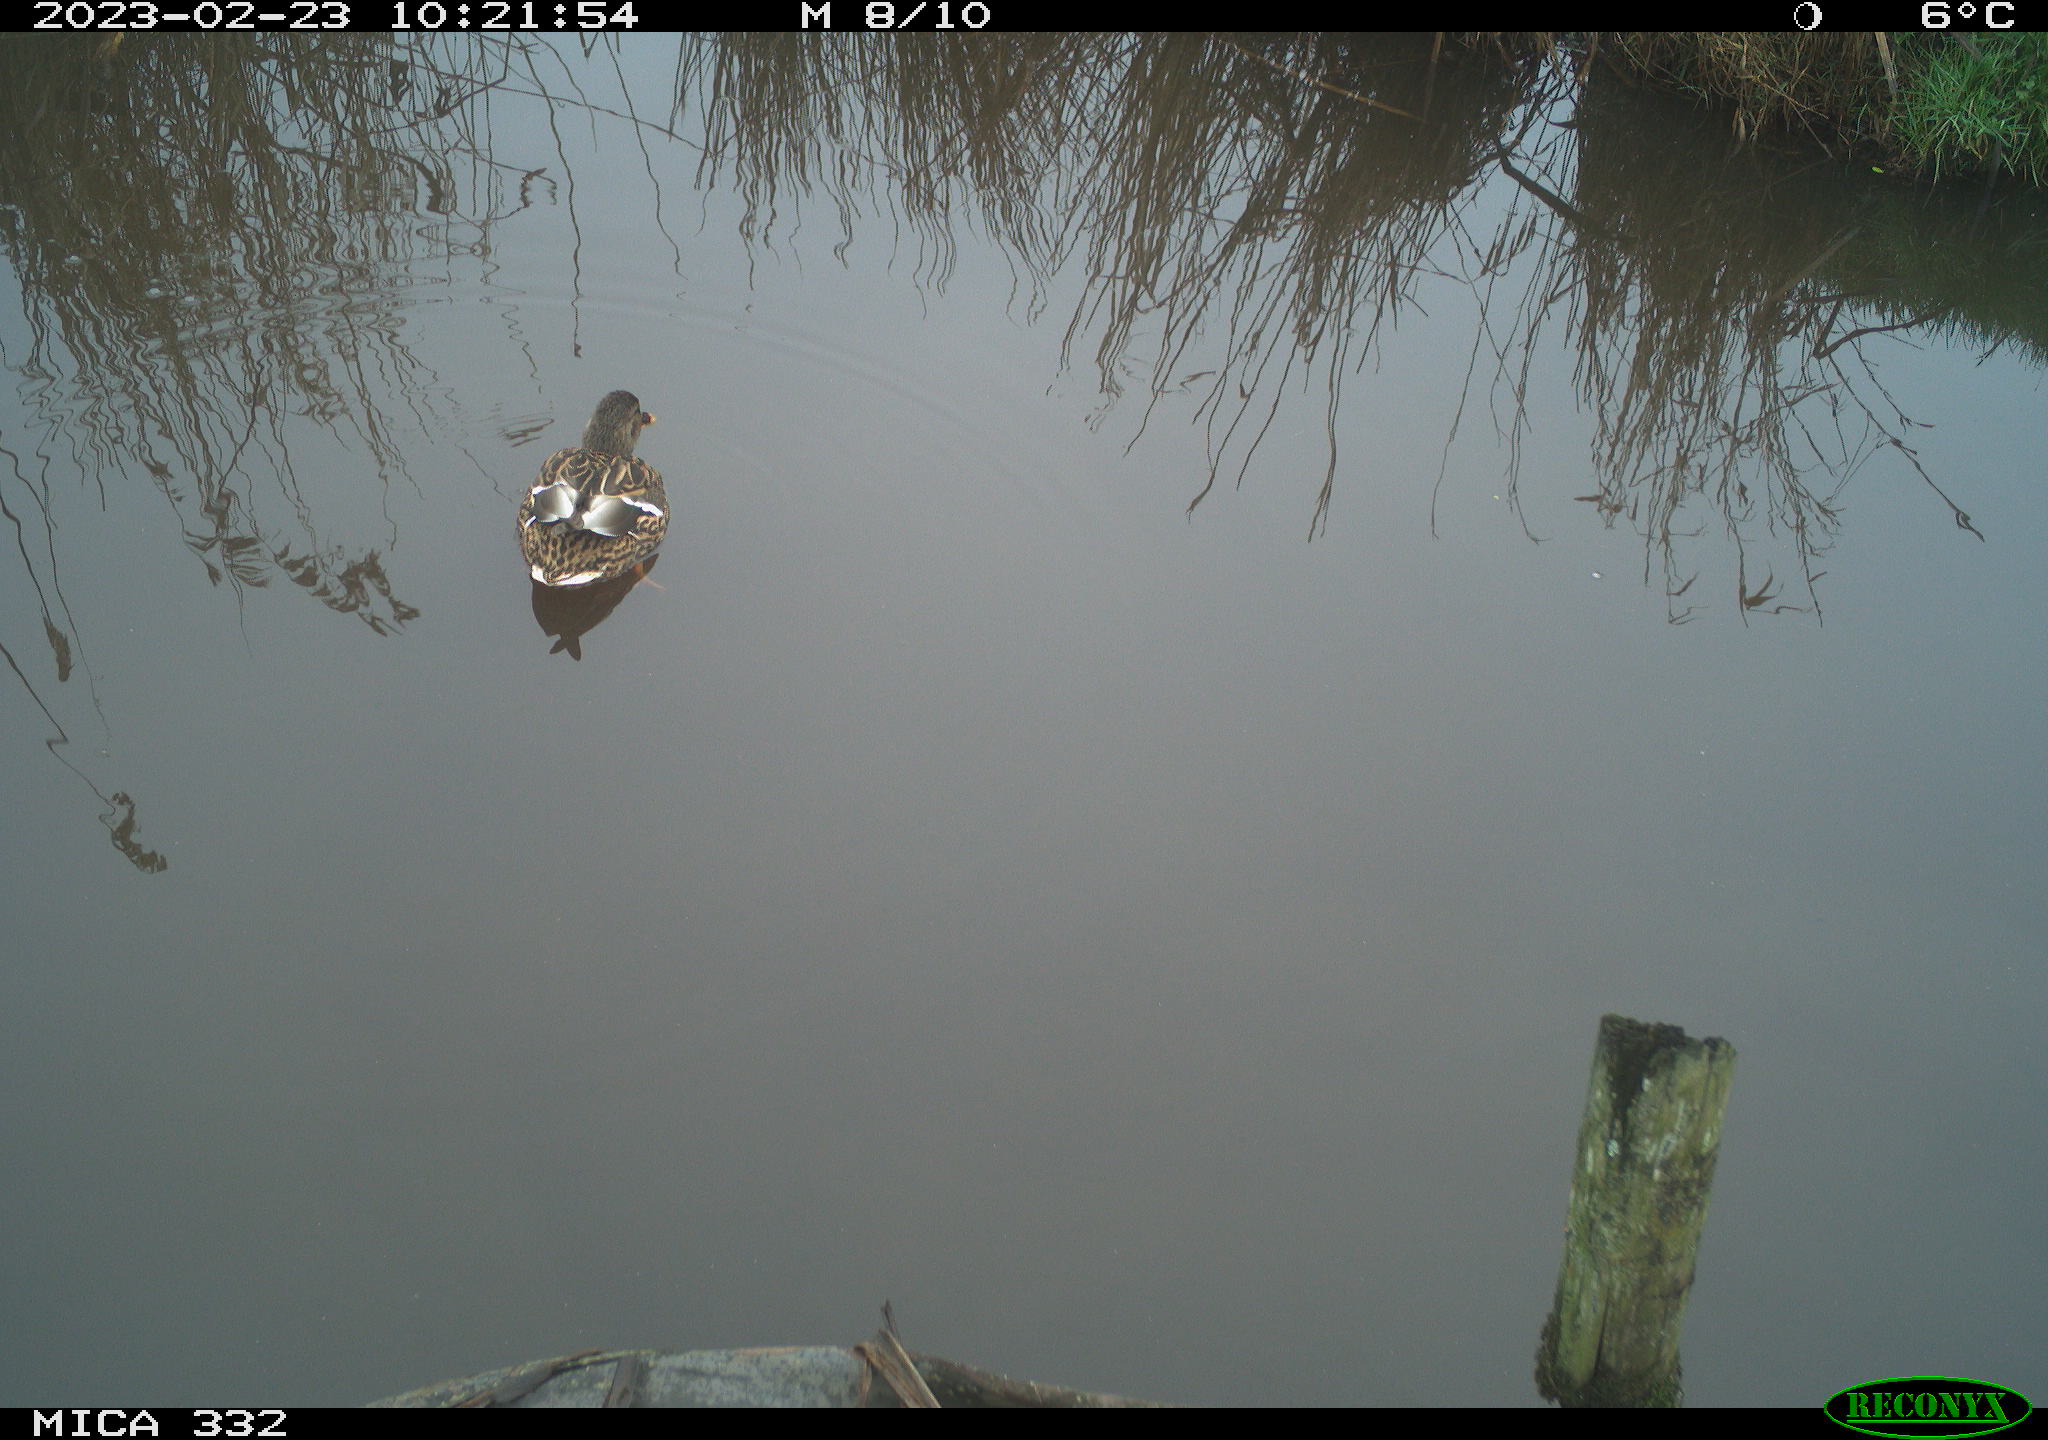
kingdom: Animalia
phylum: Chordata
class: Aves
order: Anseriformes
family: Anatidae
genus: Anas
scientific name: Anas
